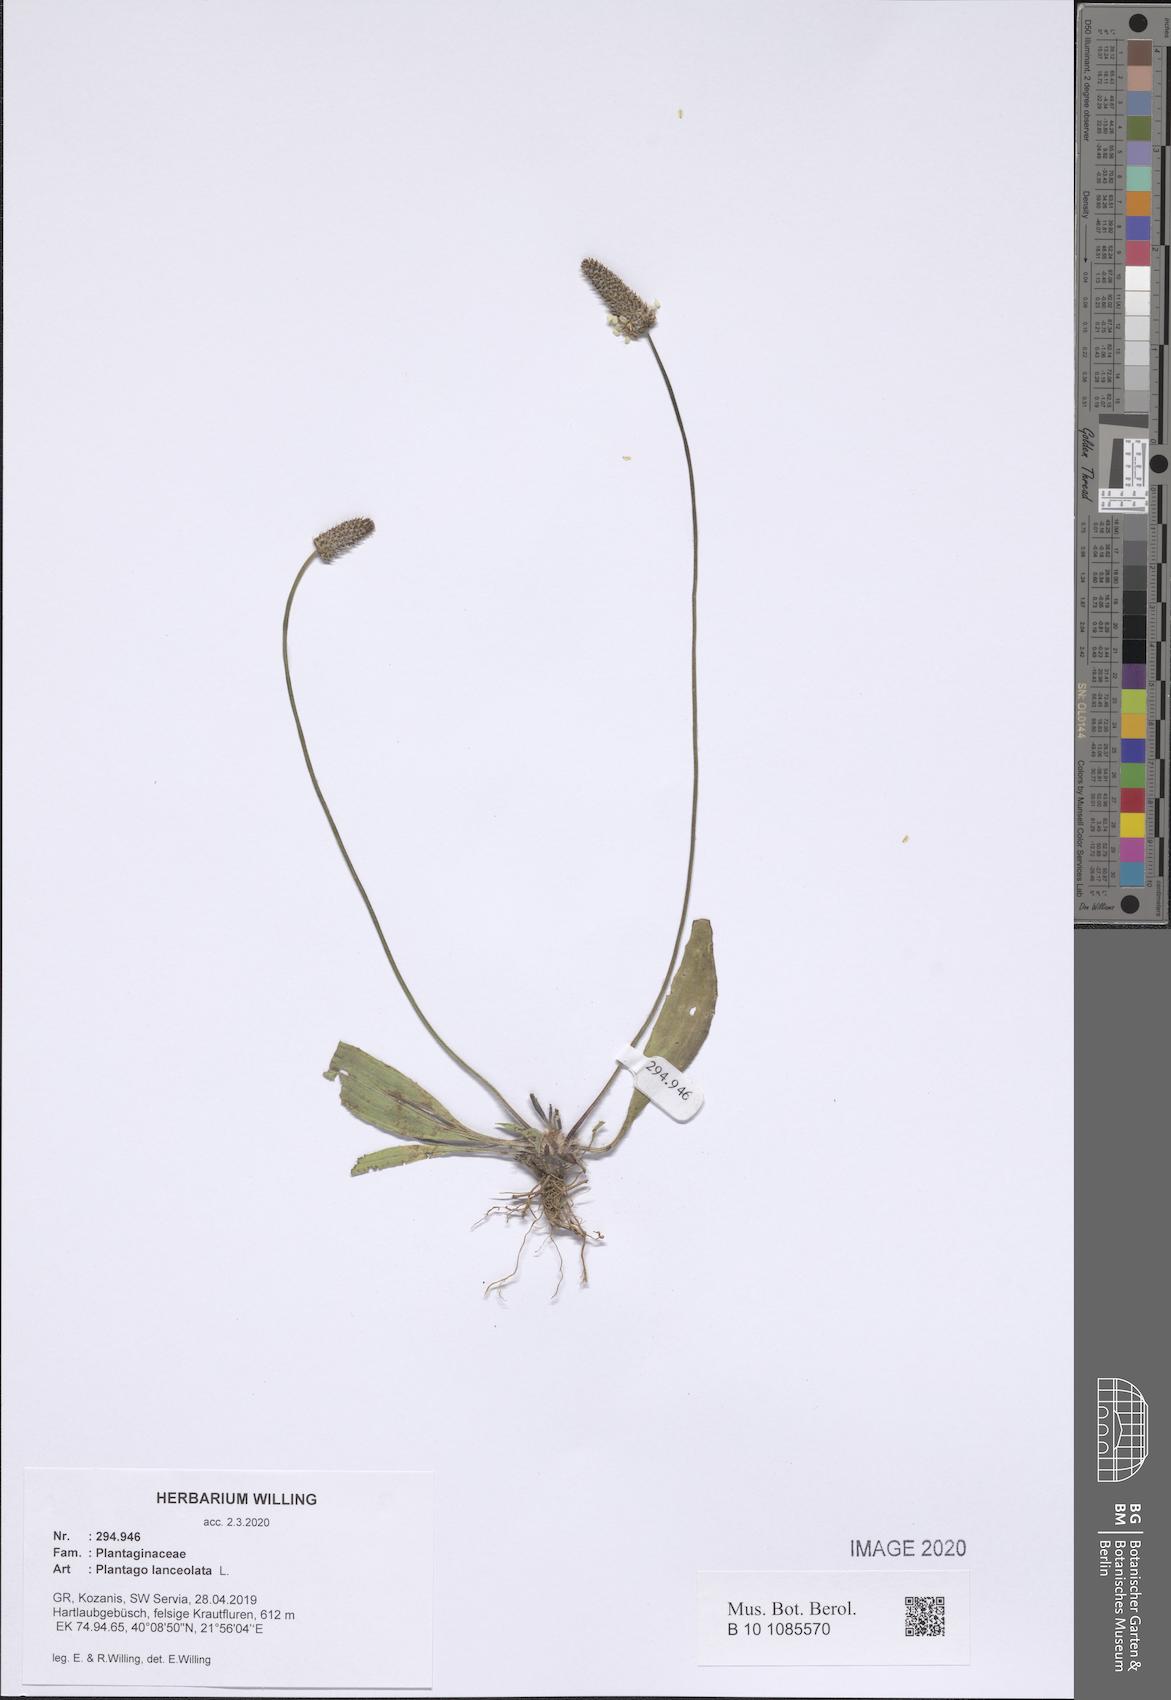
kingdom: Plantae
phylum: Tracheophyta
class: Magnoliopsida
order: Lamiales
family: Plantaginaceae
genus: Plantago
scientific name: Plantago lanceolata
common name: Ribwort plantain
